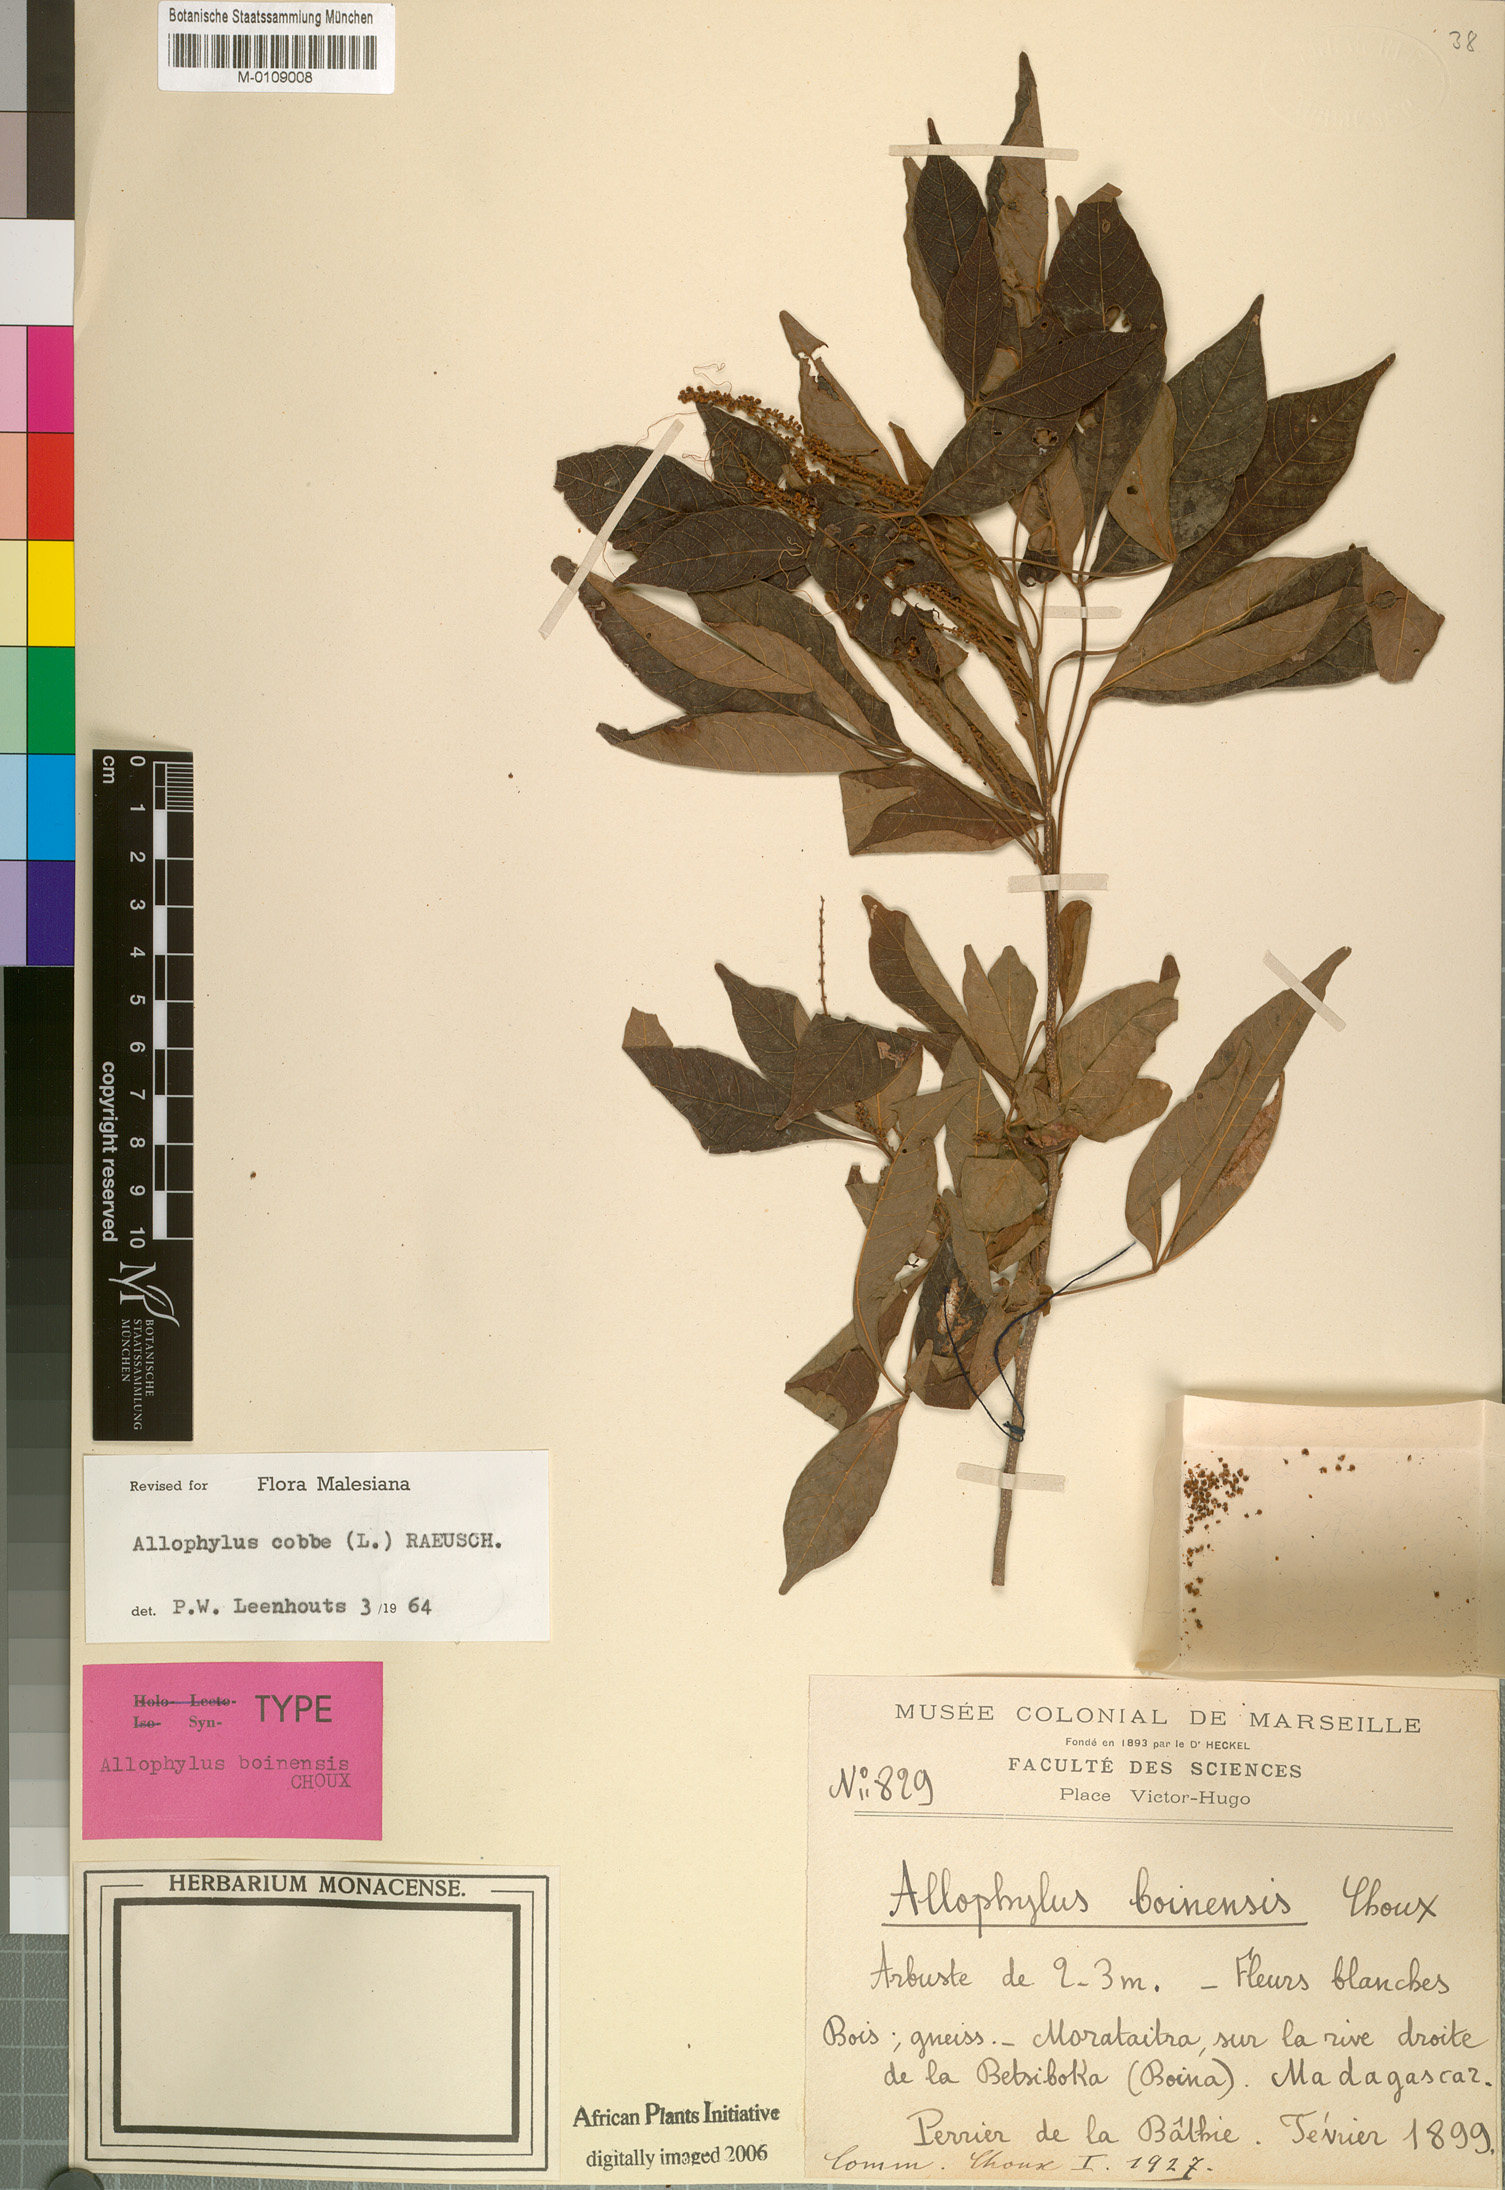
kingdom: Plantae
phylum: Tracheophyta
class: Magnoliopsida
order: Sapindales
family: Sapindaceae
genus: Allophylus
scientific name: Allophylus boinensis
